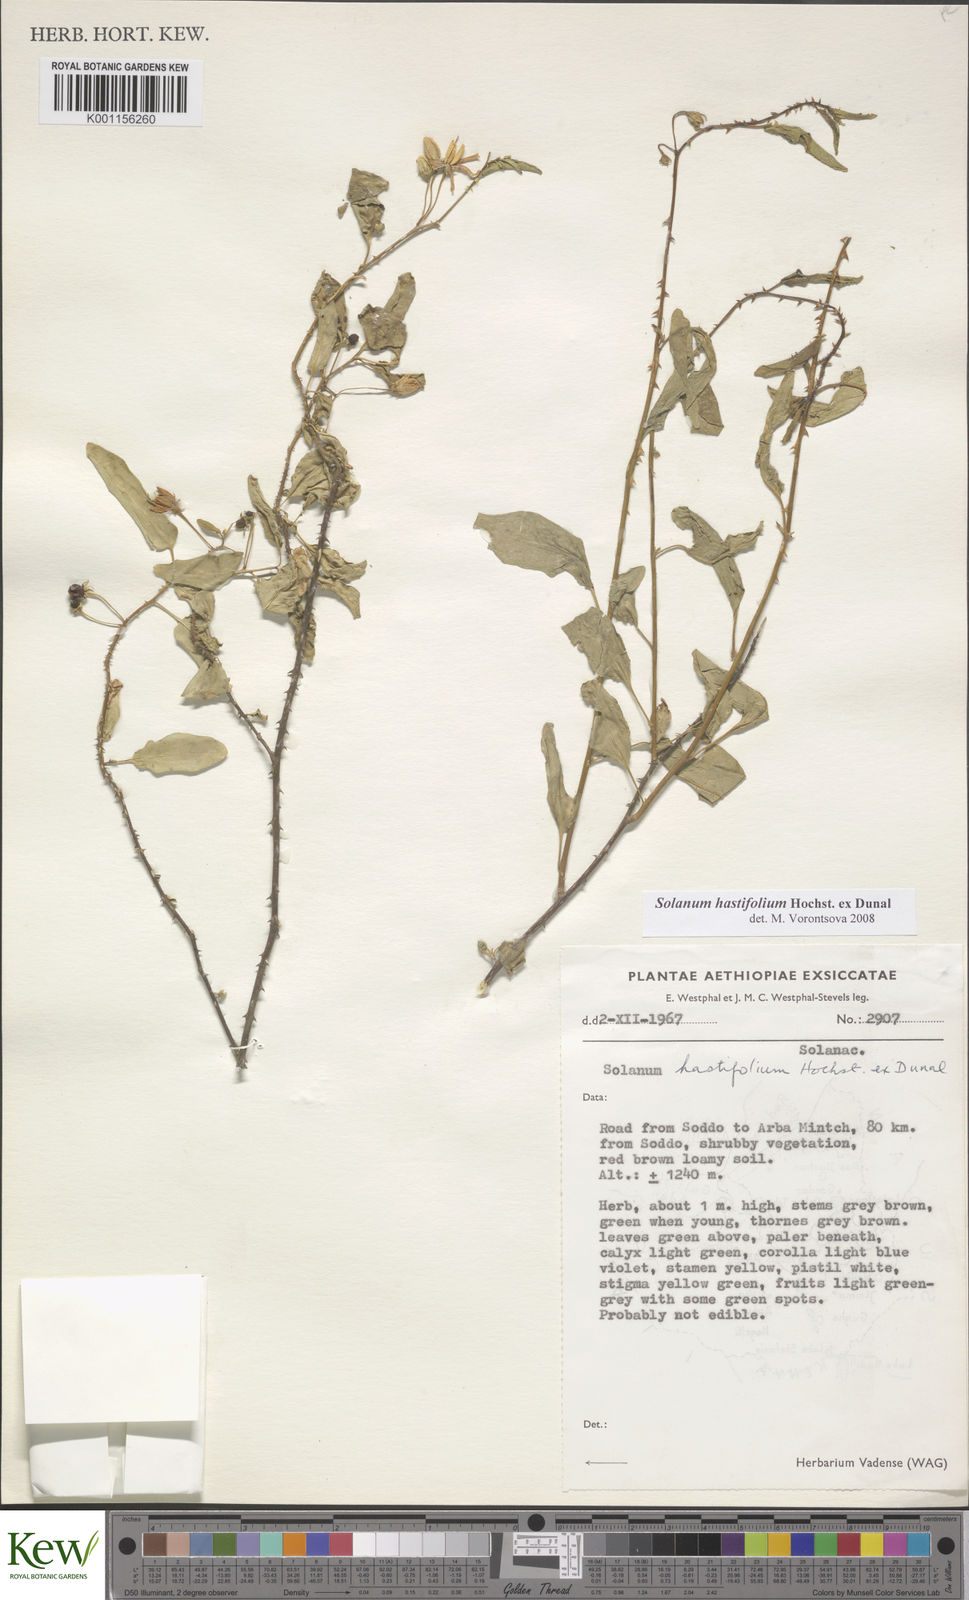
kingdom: Plantae
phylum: Tracheophyta
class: Magnoliopsida
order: Solanales
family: Solanaceae
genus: Solanum
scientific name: Solanum hastifolium
